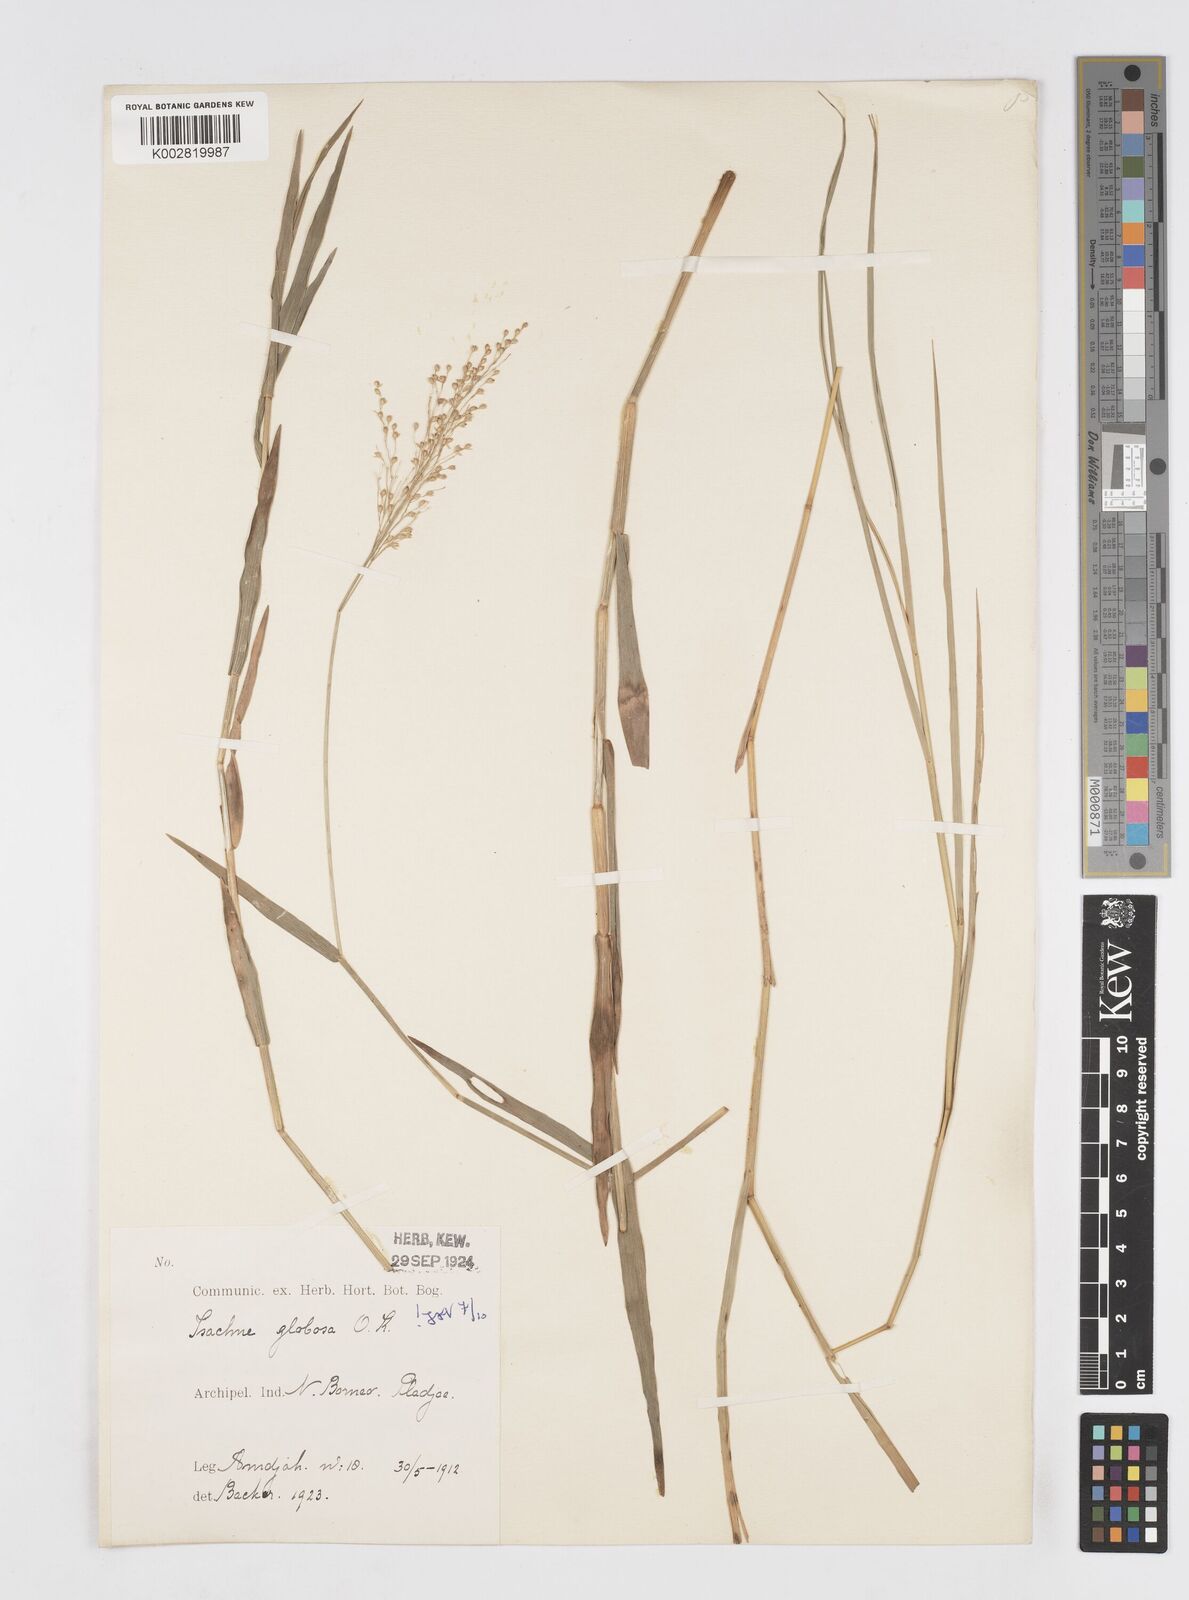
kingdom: Plantae
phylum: Tracheophyta
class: Liliopsida
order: Poales
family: Poaceae
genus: Isachne
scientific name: Isachne globosa
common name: Swamp millet
